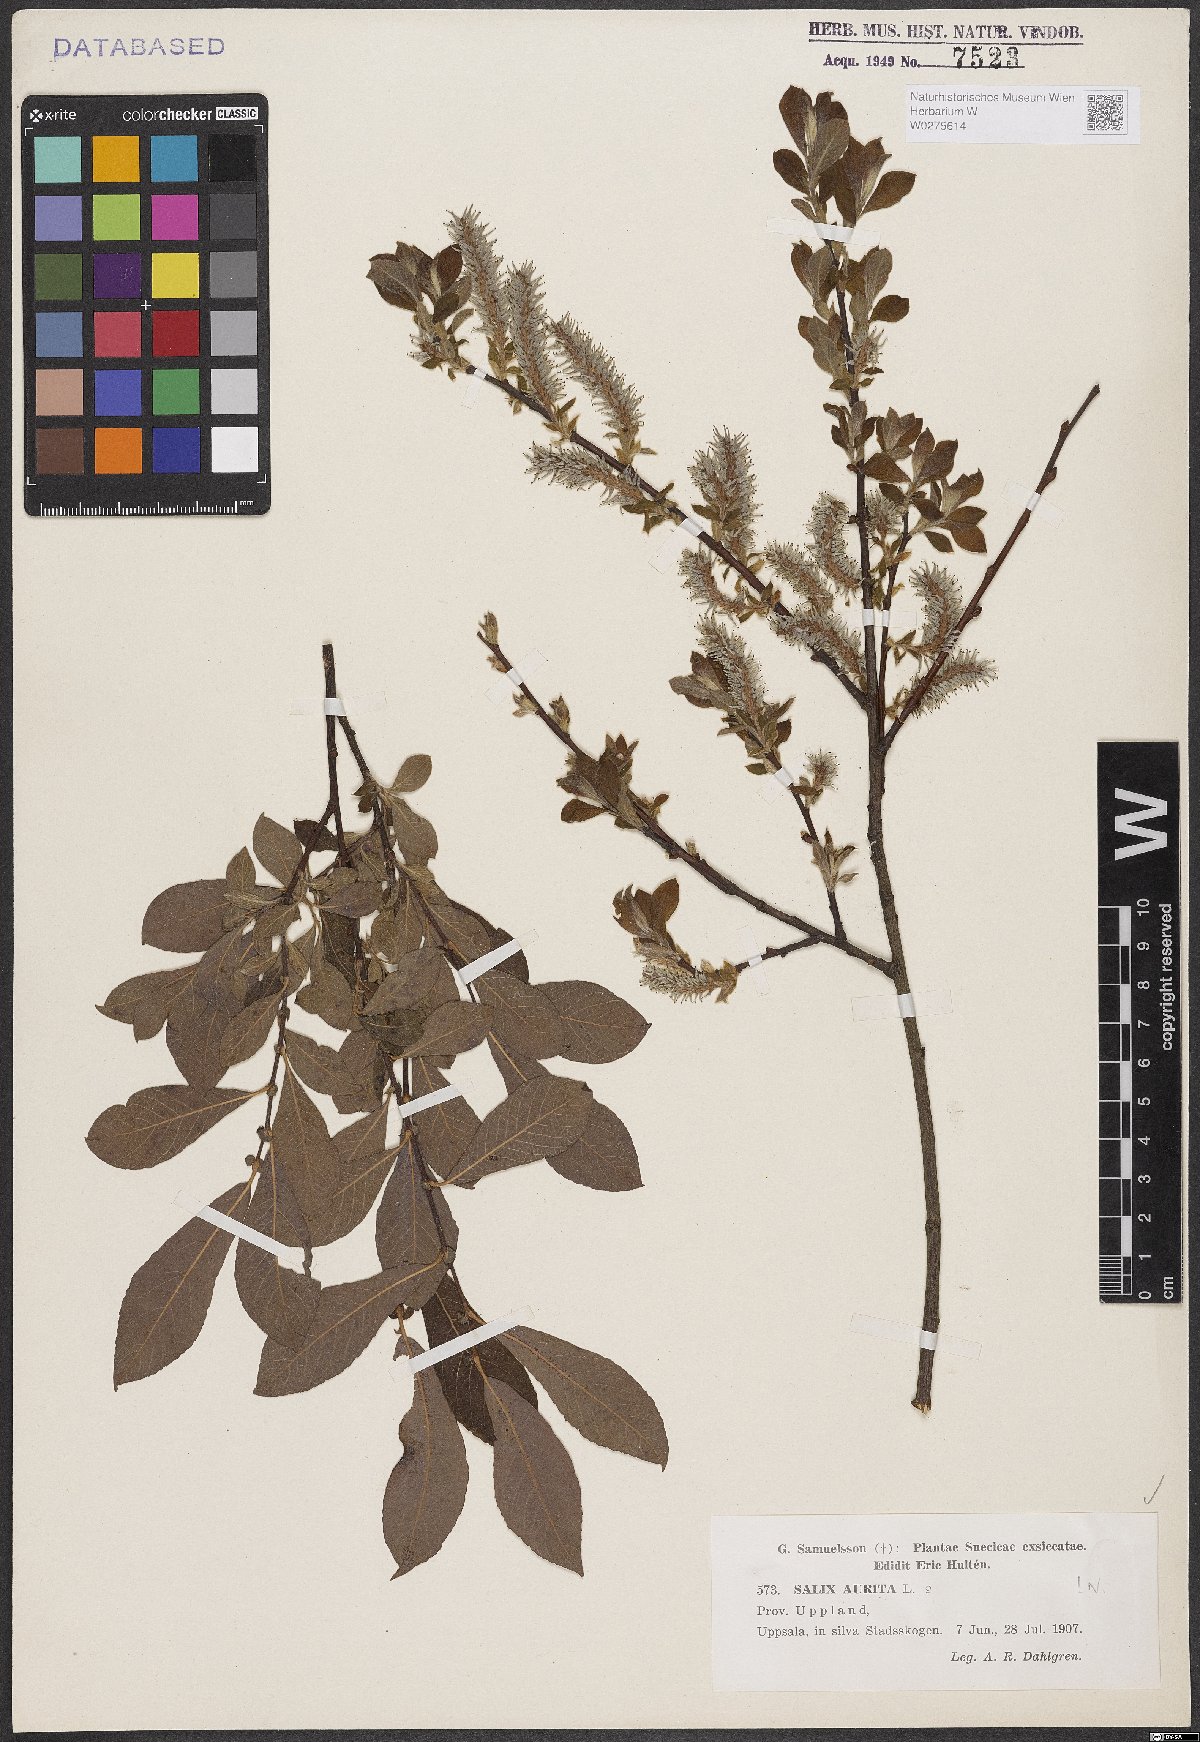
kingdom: Plantae
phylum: Tracheophyta
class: Magnoliopsida
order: Malpighiales
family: Salicaceae
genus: Salix
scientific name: Salix aurita
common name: Eared willow
